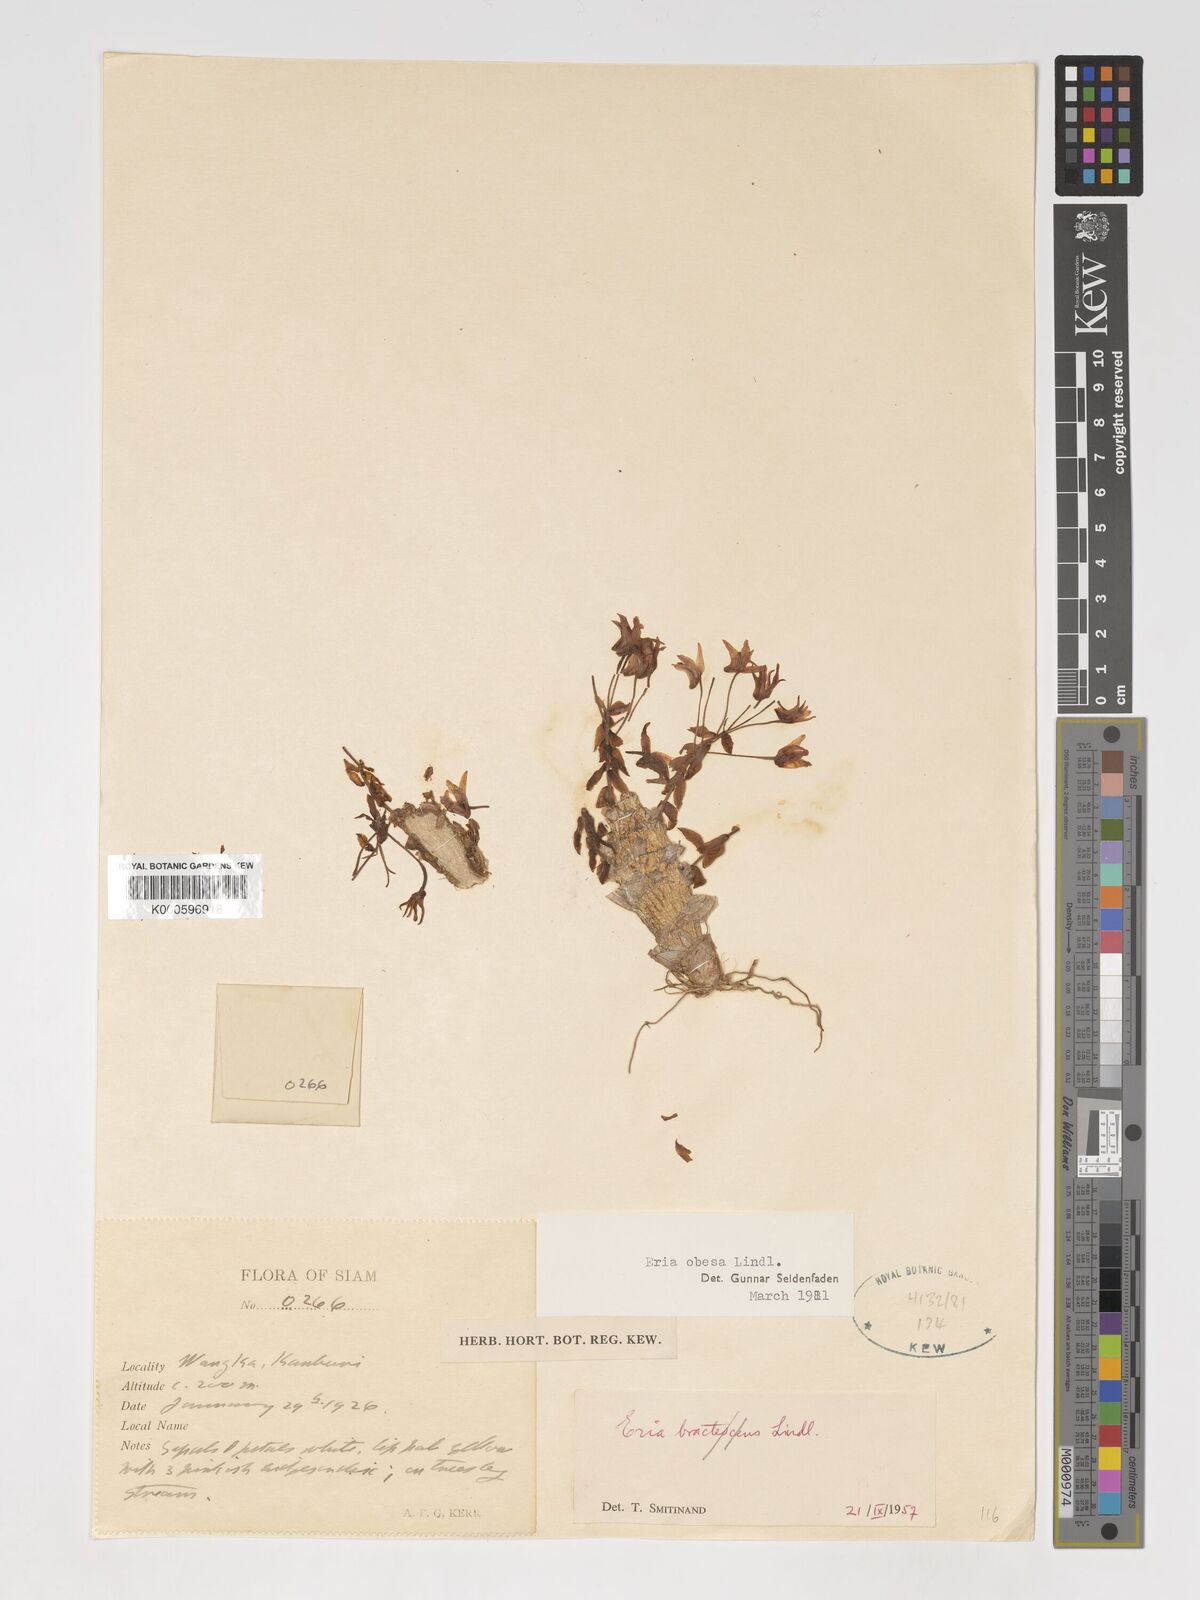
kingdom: Plantae
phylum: Tracheophyta
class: Liliopsida
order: Asparagales
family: Orchidaceae
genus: Pinalia
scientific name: Pinalia obesa
